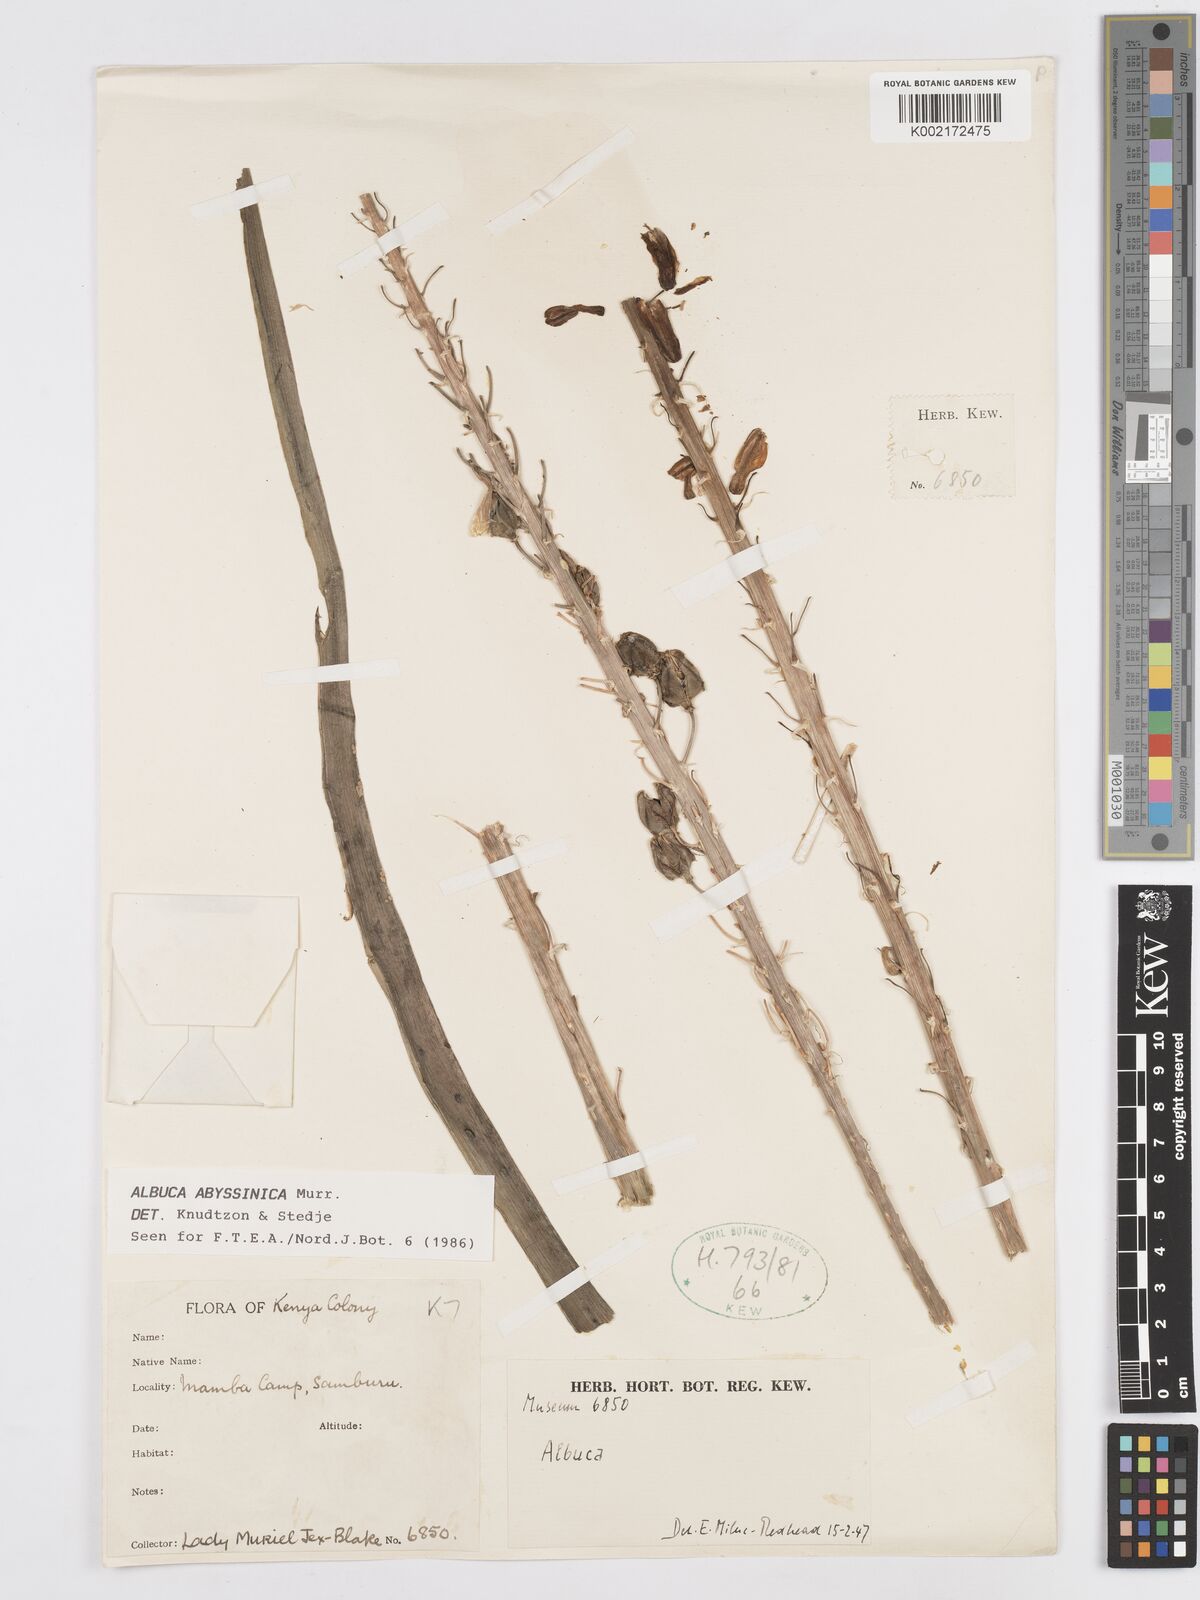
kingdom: Plantae
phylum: Tracheophyta
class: Liliopsida
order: Asparagales
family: Asparagaceae
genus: Albuca
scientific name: Albuca abyssinica
